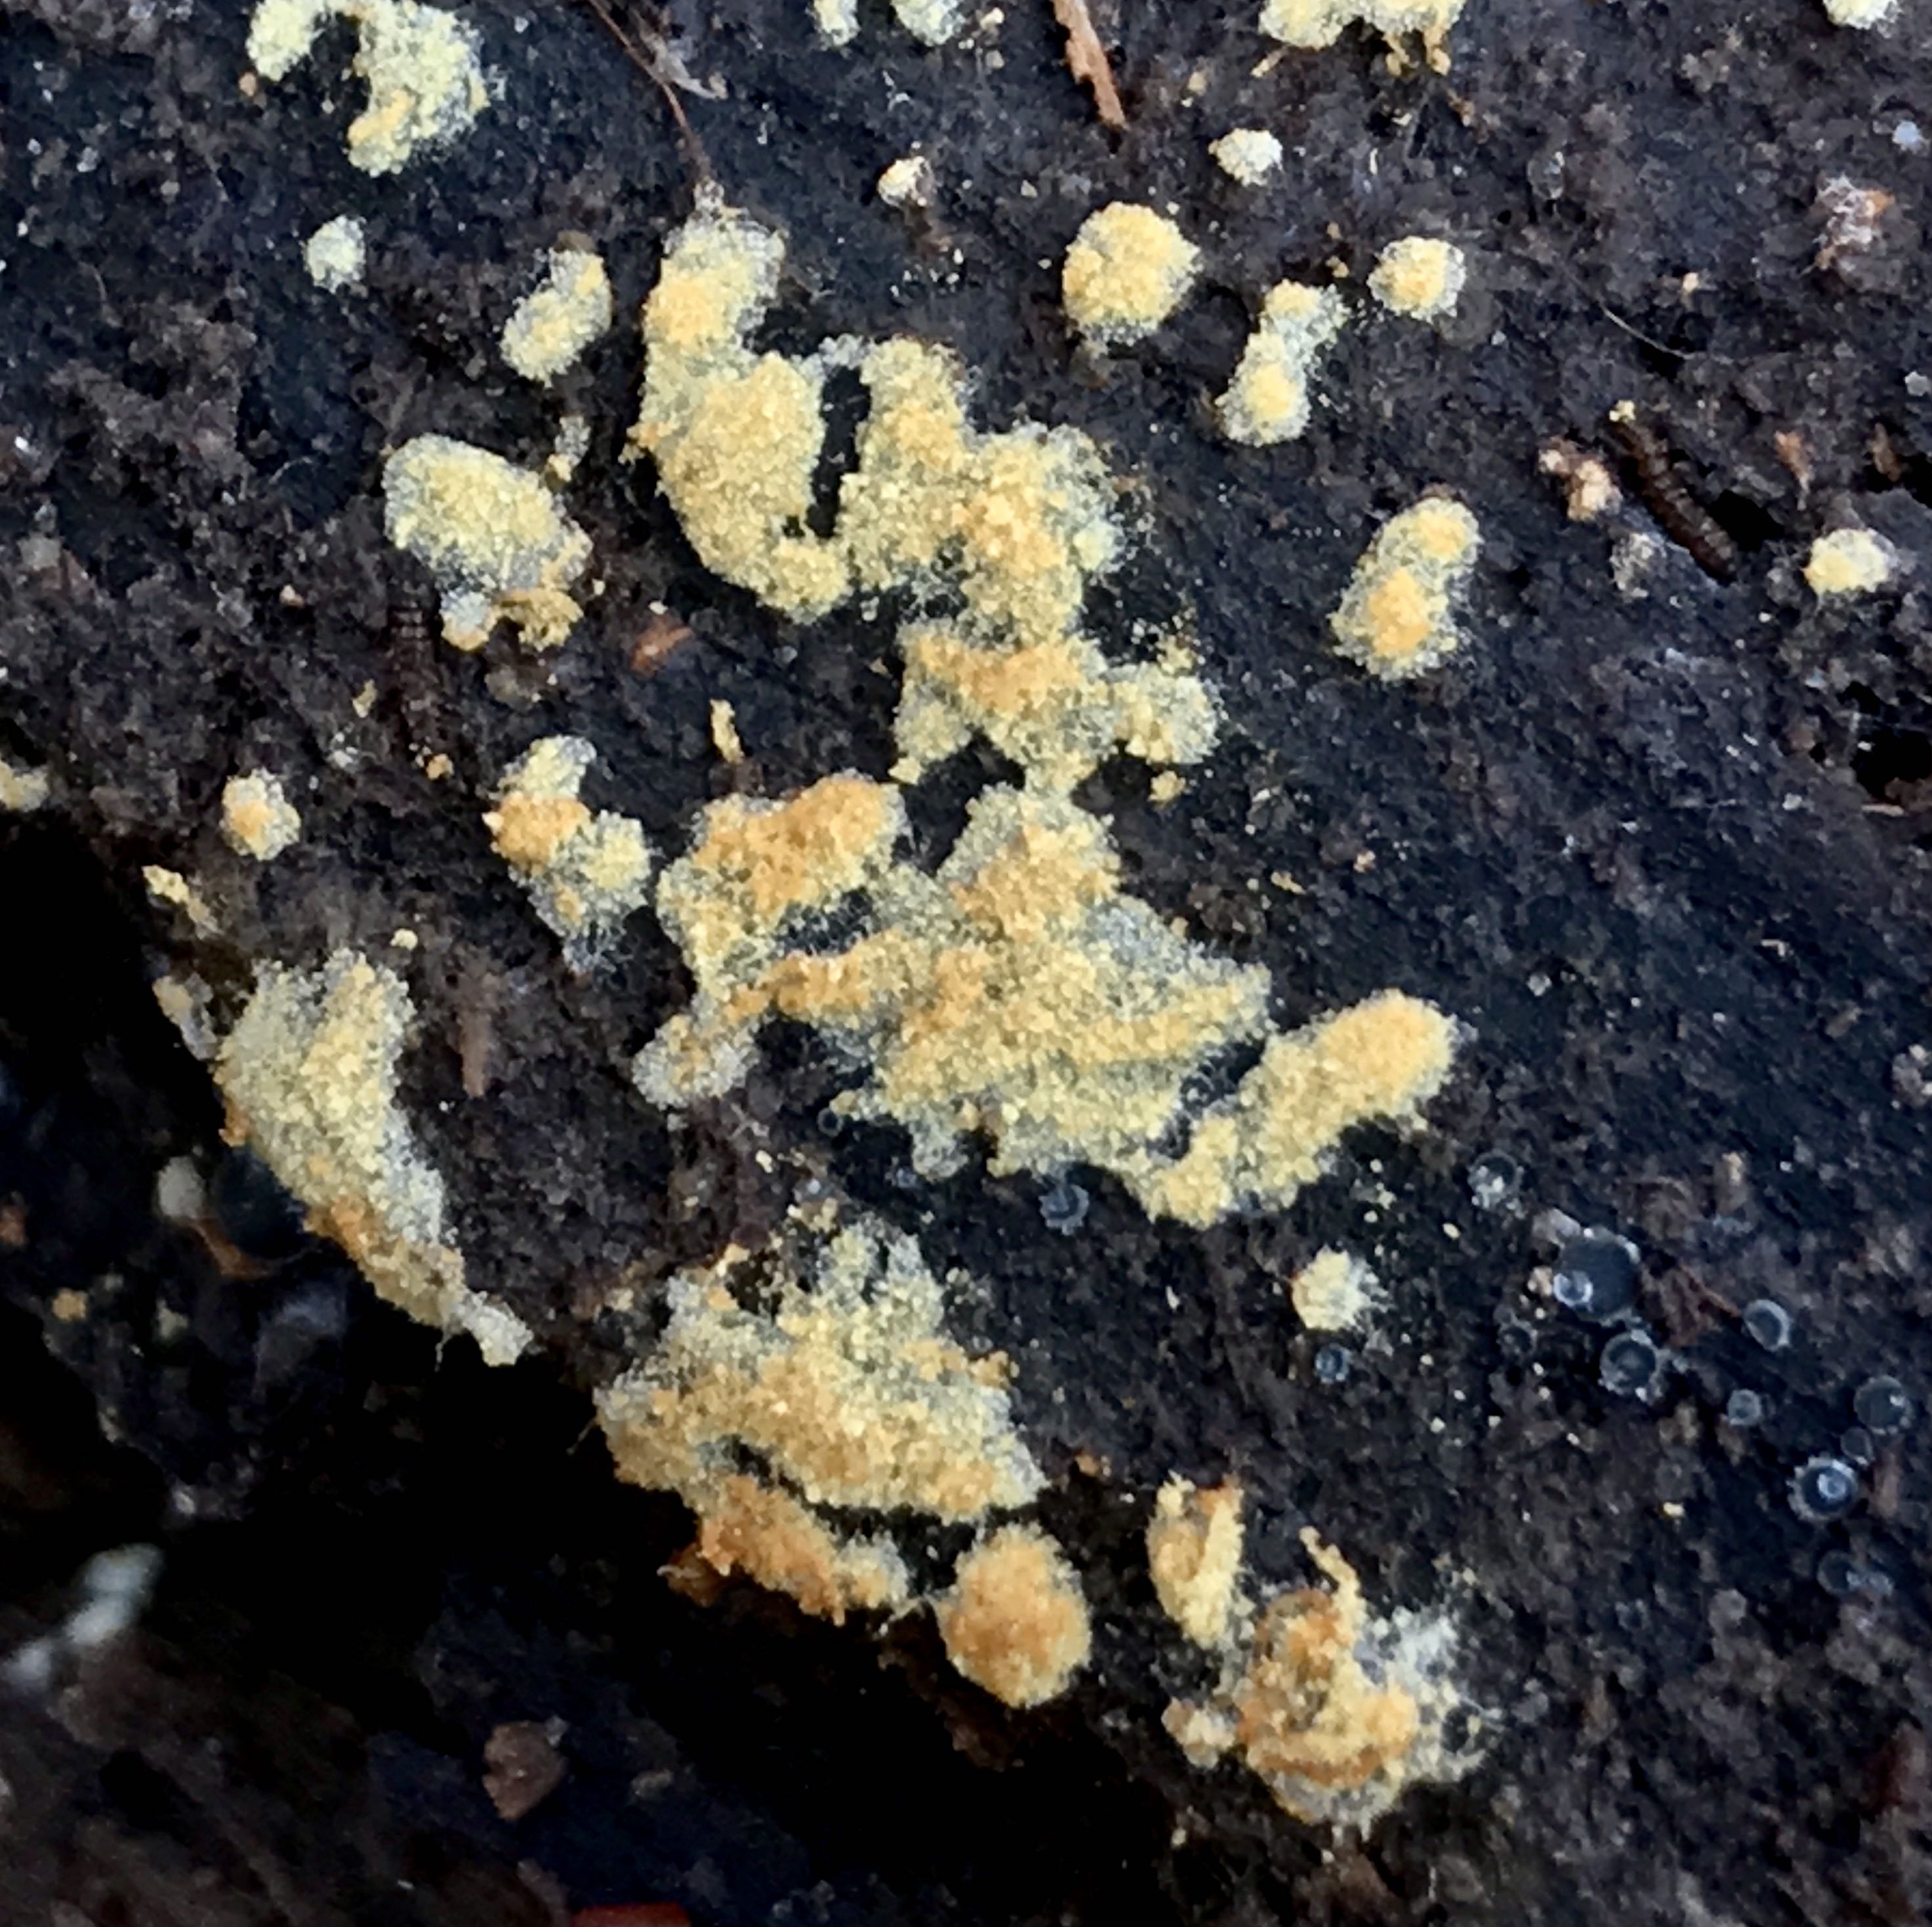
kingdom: Fungi
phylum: Basidiomycota
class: Agaricomycetes
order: Cantharellales
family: Botryobasidiaceae
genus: Botryobasidium
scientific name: Botryobasidium aureum
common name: gylden spindhinde
